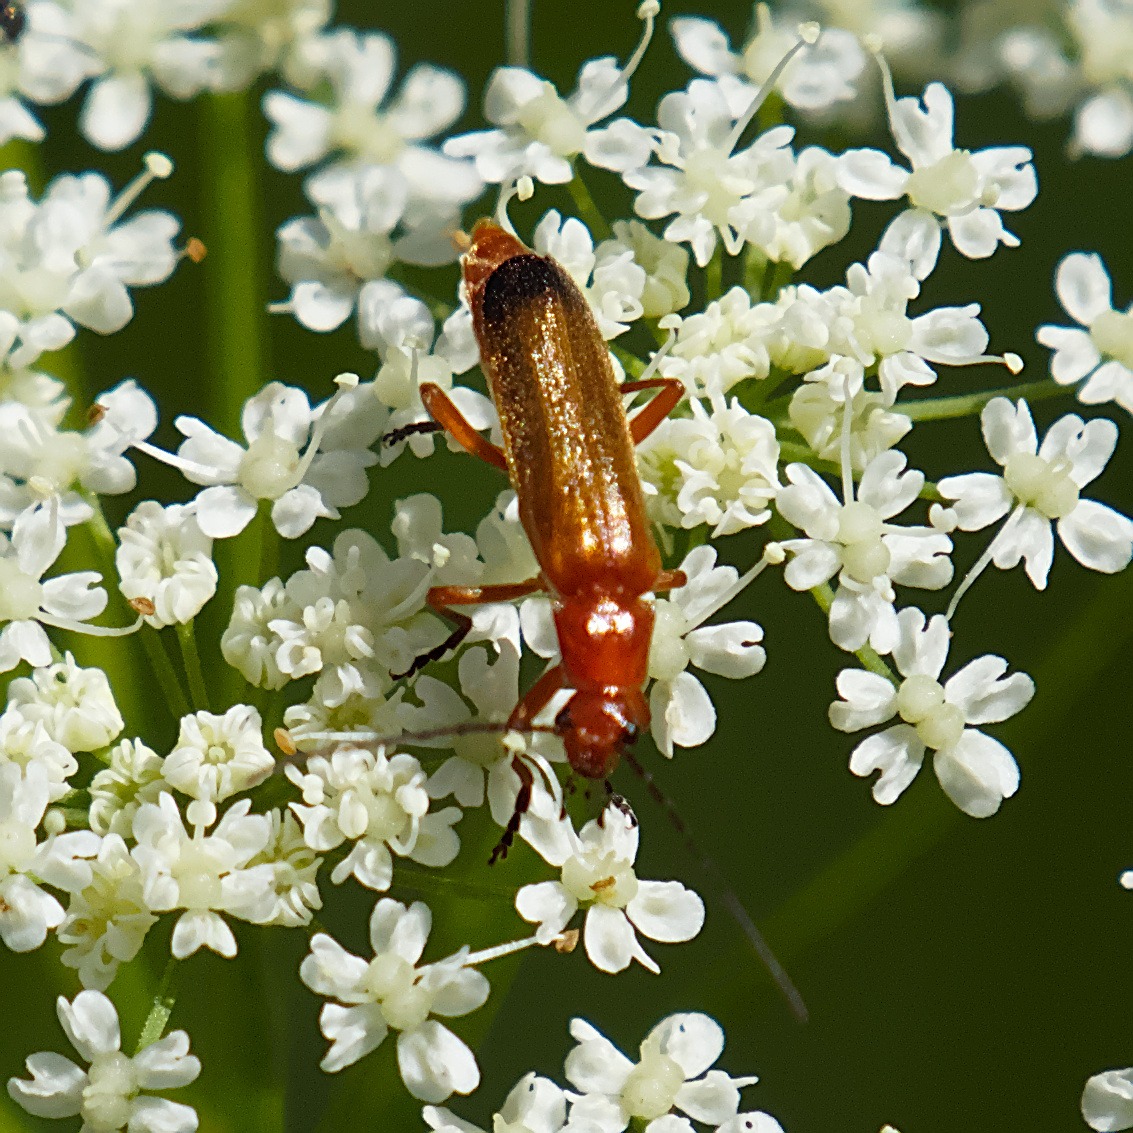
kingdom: Animalia
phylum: Arthropoda
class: Insecta
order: Coleoptera
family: Cantharidae
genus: Rhagonycha
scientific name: Rhagonycha fulva
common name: Præstebille
